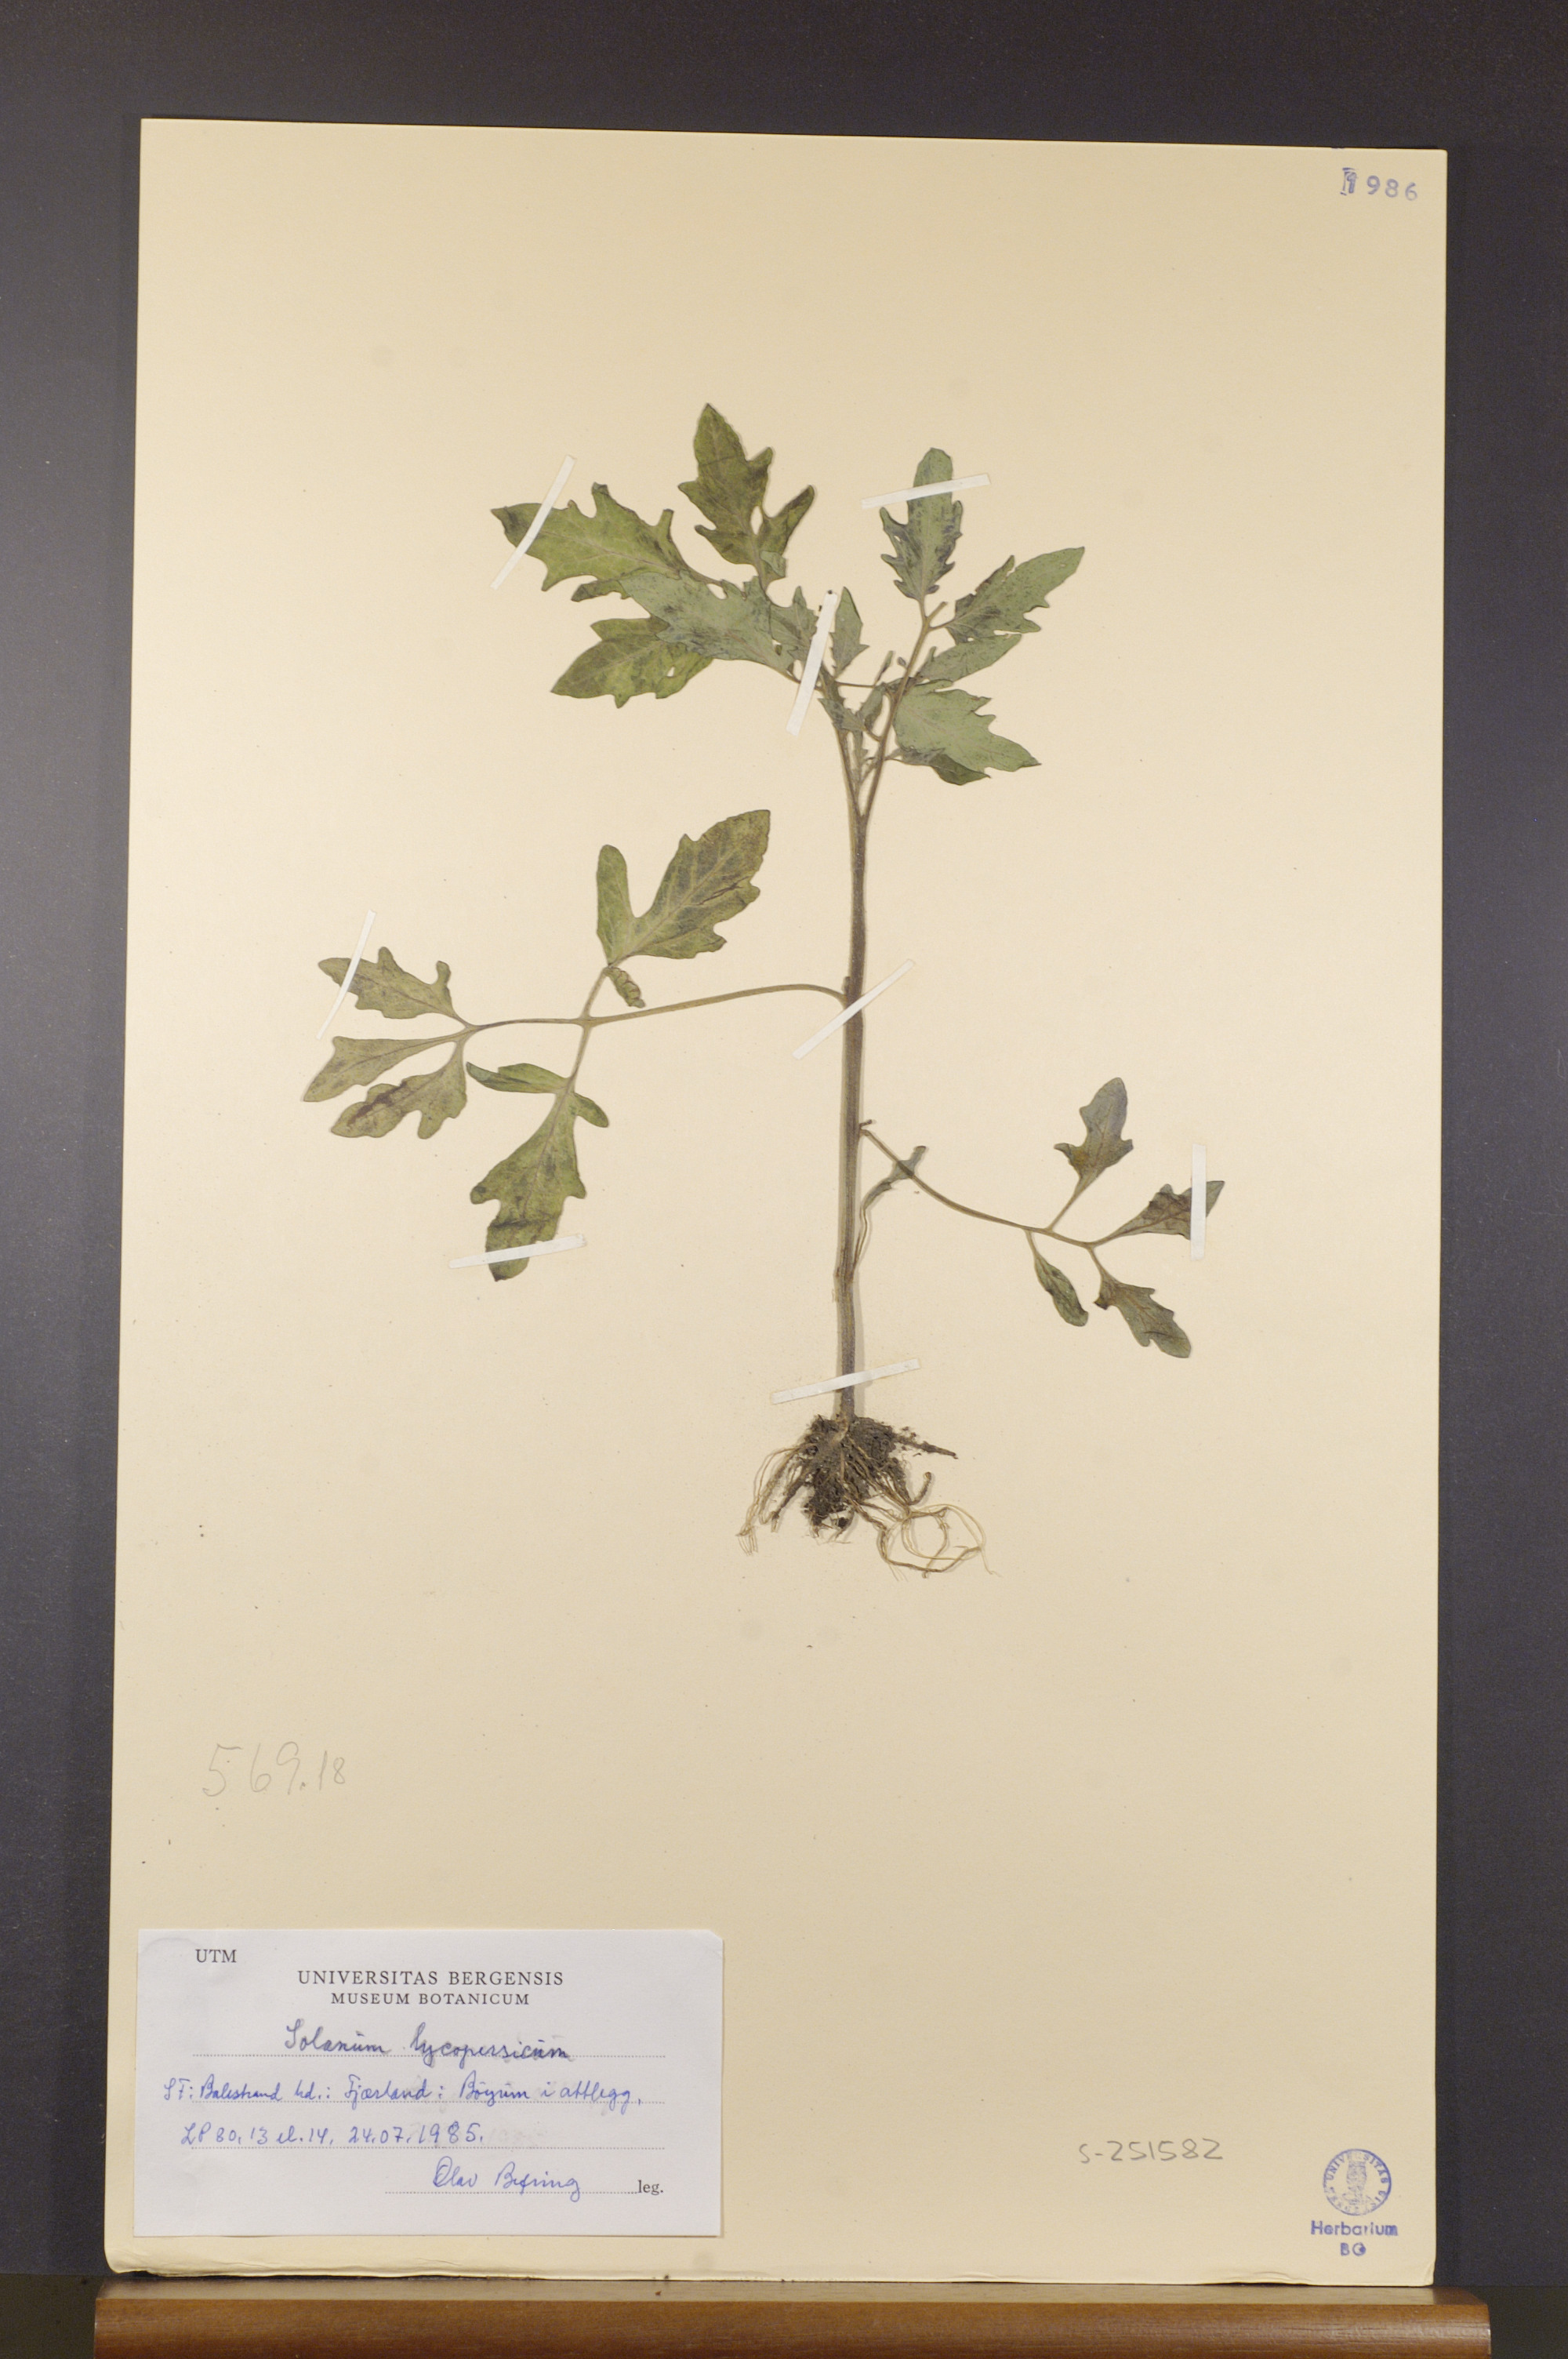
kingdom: Plantae
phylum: Tracheophyta
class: Magnoliopsida
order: Solanales
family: Solanaceae
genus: Solanum
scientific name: Solanum
